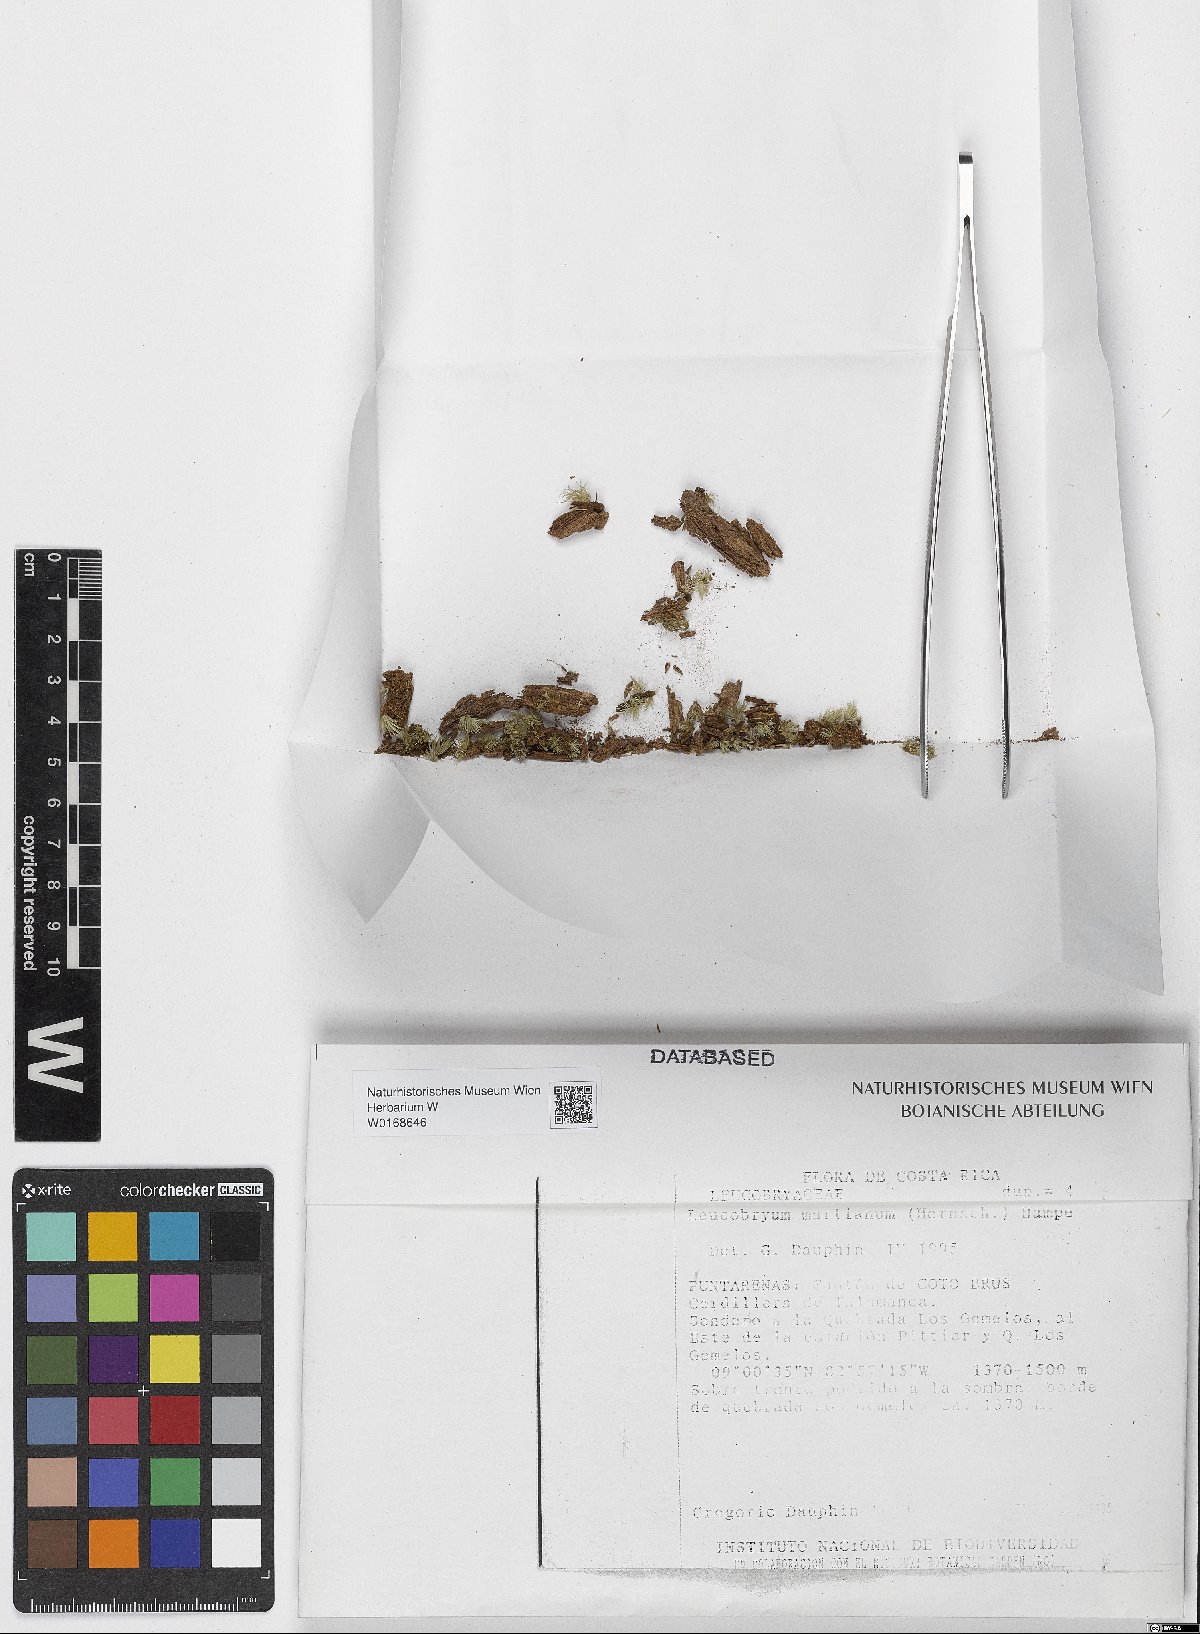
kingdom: Plantae
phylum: Bryophyta
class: Bryopsida
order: Dicranales
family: Leucobryaceae
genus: Leucobryum
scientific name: Leucobryum
